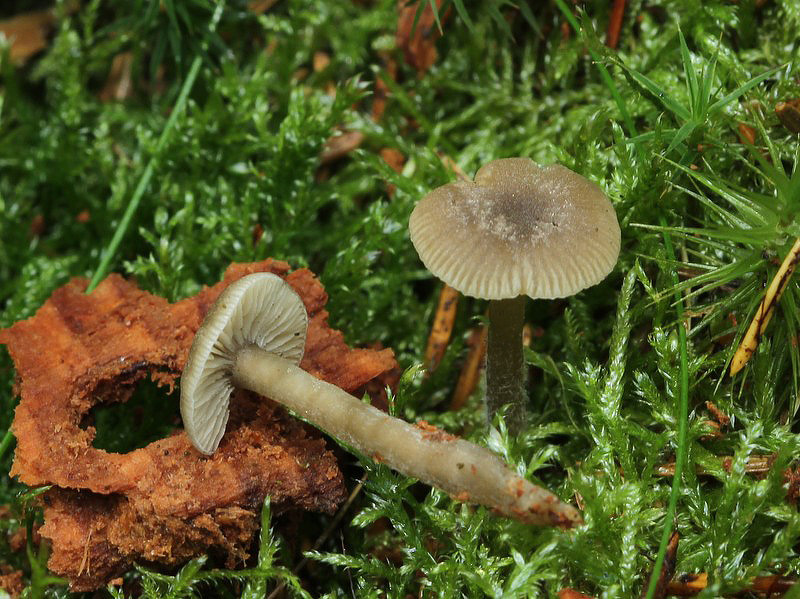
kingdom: Fungi
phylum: Basidiomycota
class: Agaricomycetes
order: Agaricales
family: Tricholomataceae
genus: Omphaliaster
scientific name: Omphaliaster asterosporus
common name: narrehat
